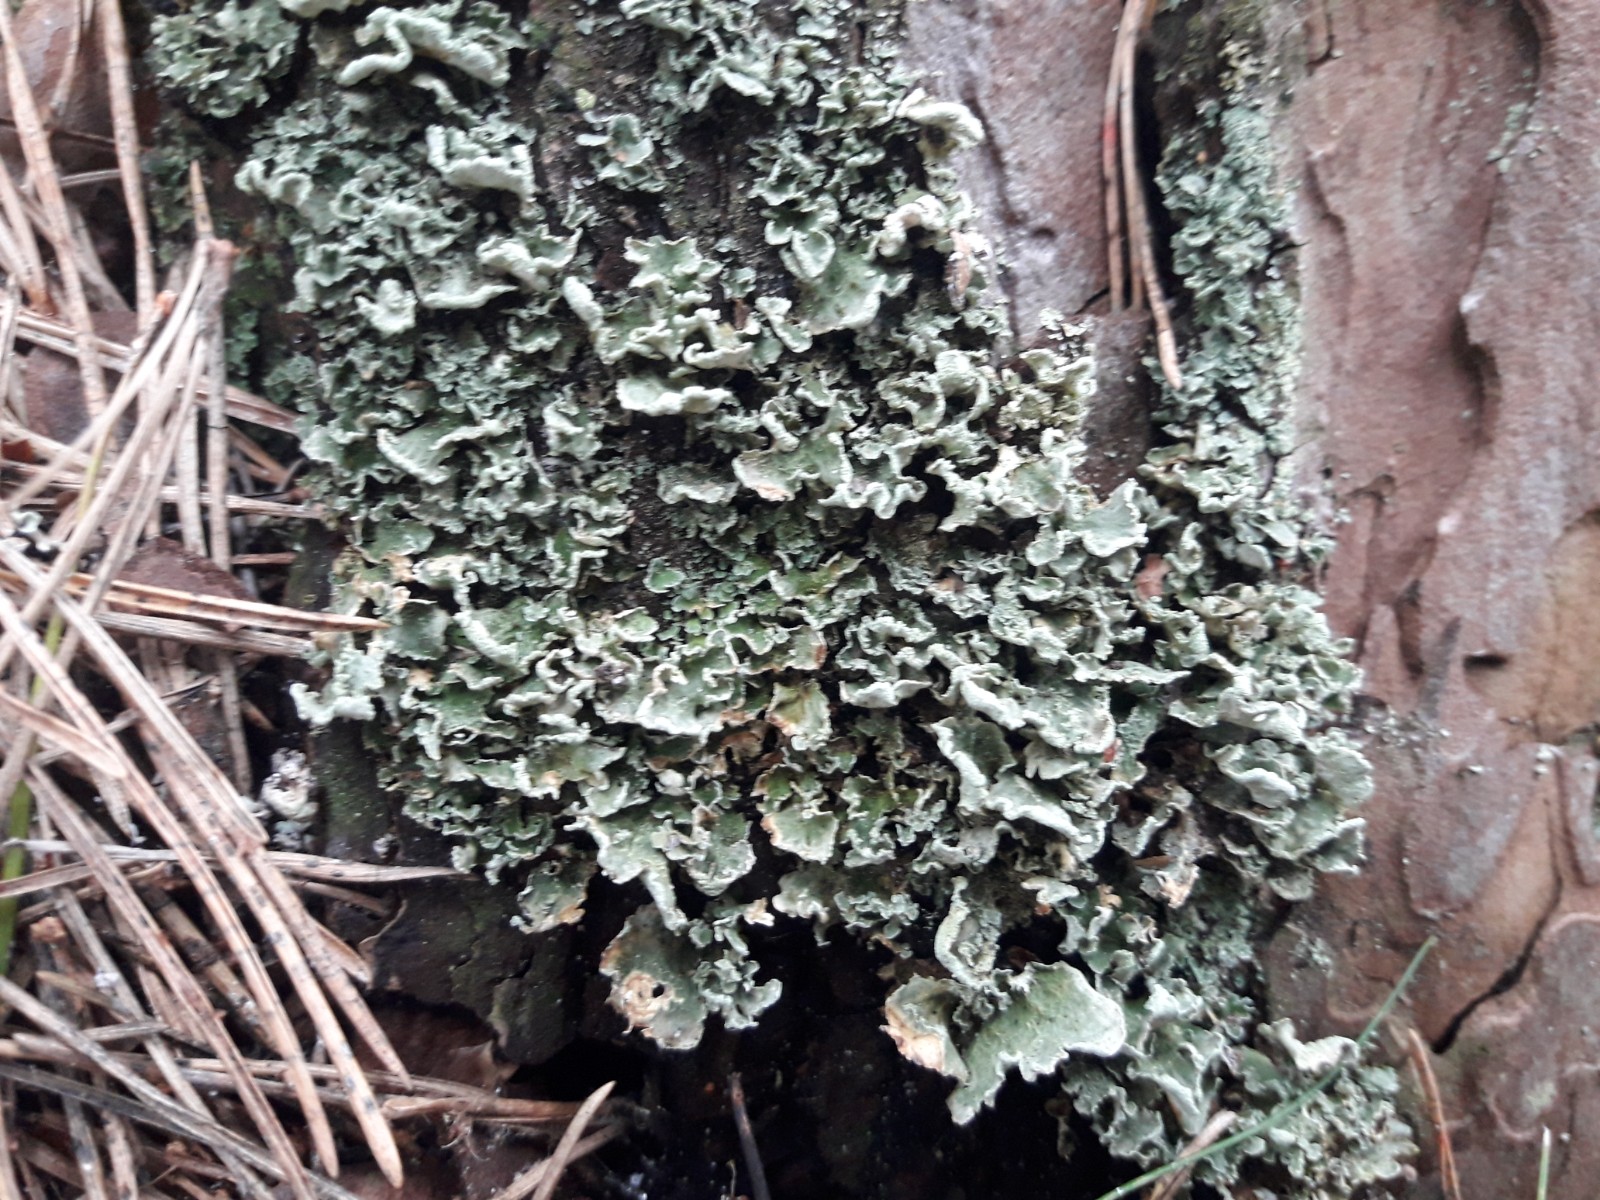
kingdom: Fungi
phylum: Ascomycota
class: Lecanoromycetes
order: Lecanorales
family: Cladoniaceae
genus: Cladonia
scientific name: Cladonia digitata
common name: finger-bægerlav
